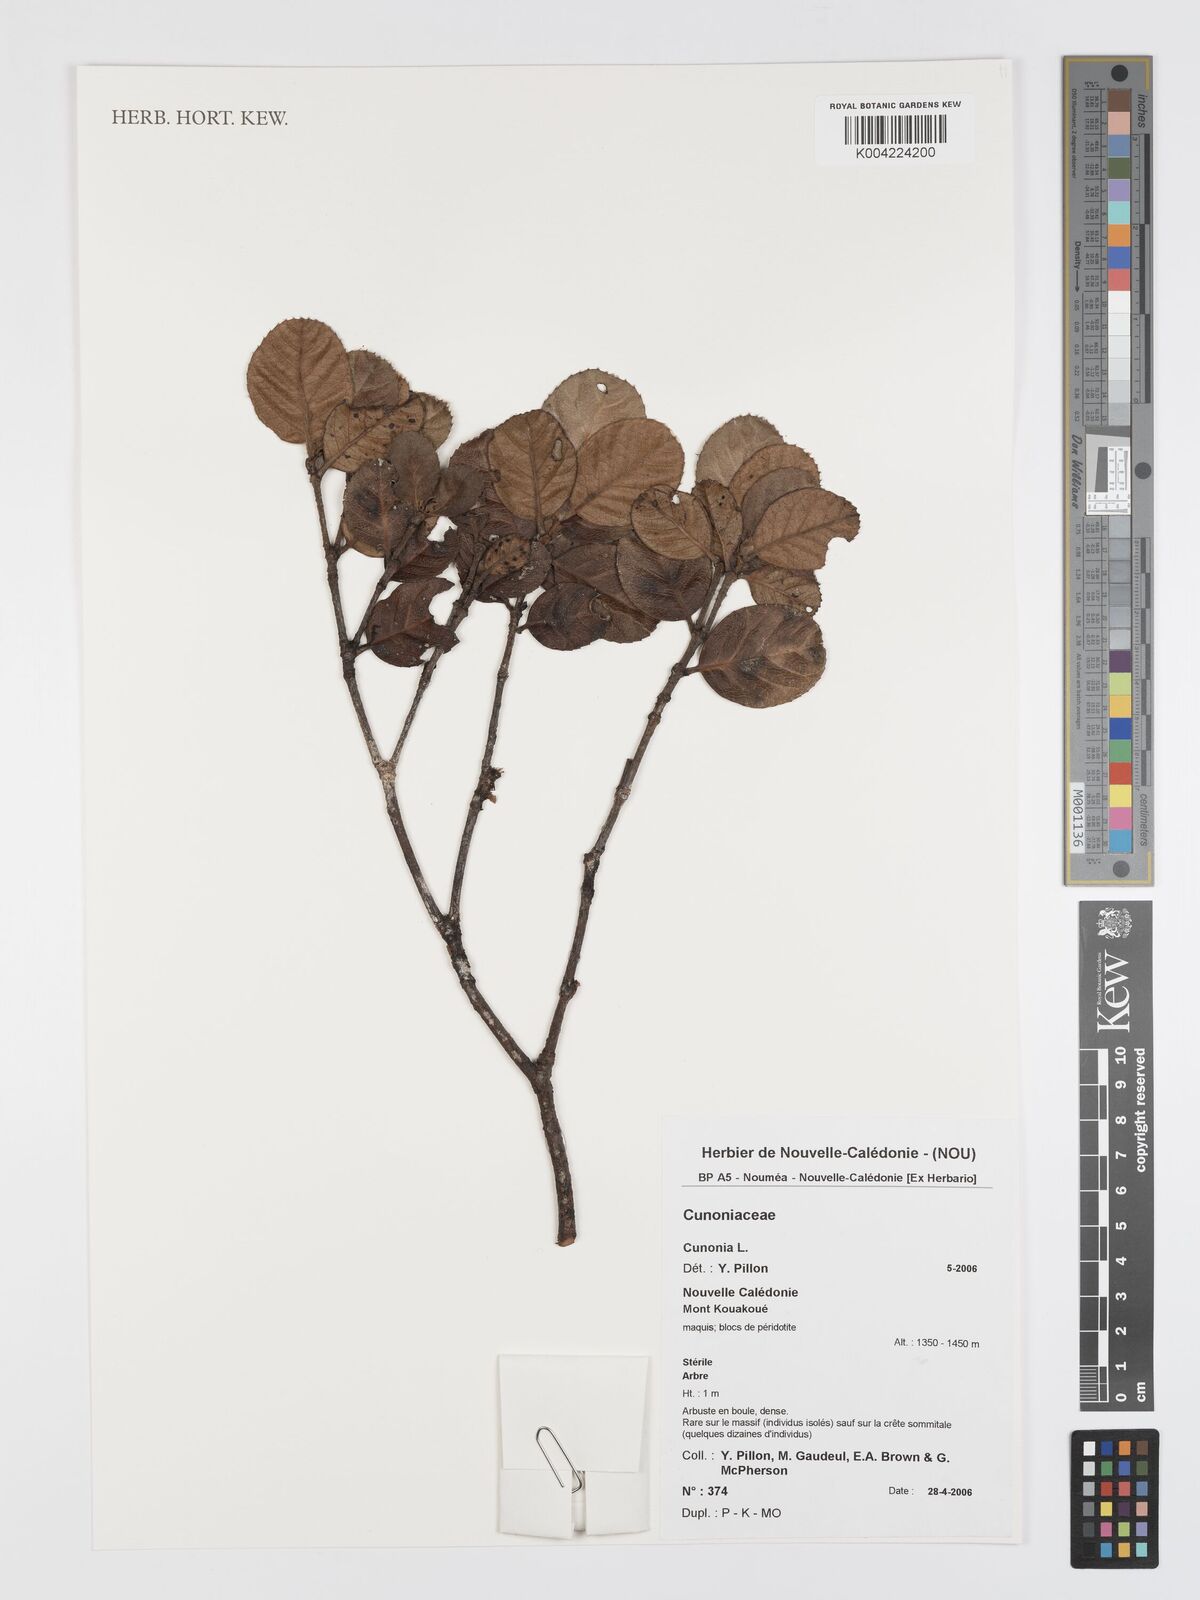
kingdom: Plantae
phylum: Tracheophyta
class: Magnoliopsida
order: Oxalidales
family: Cunoniaceae
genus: Cunonia
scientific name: Cunonia dickisonii
